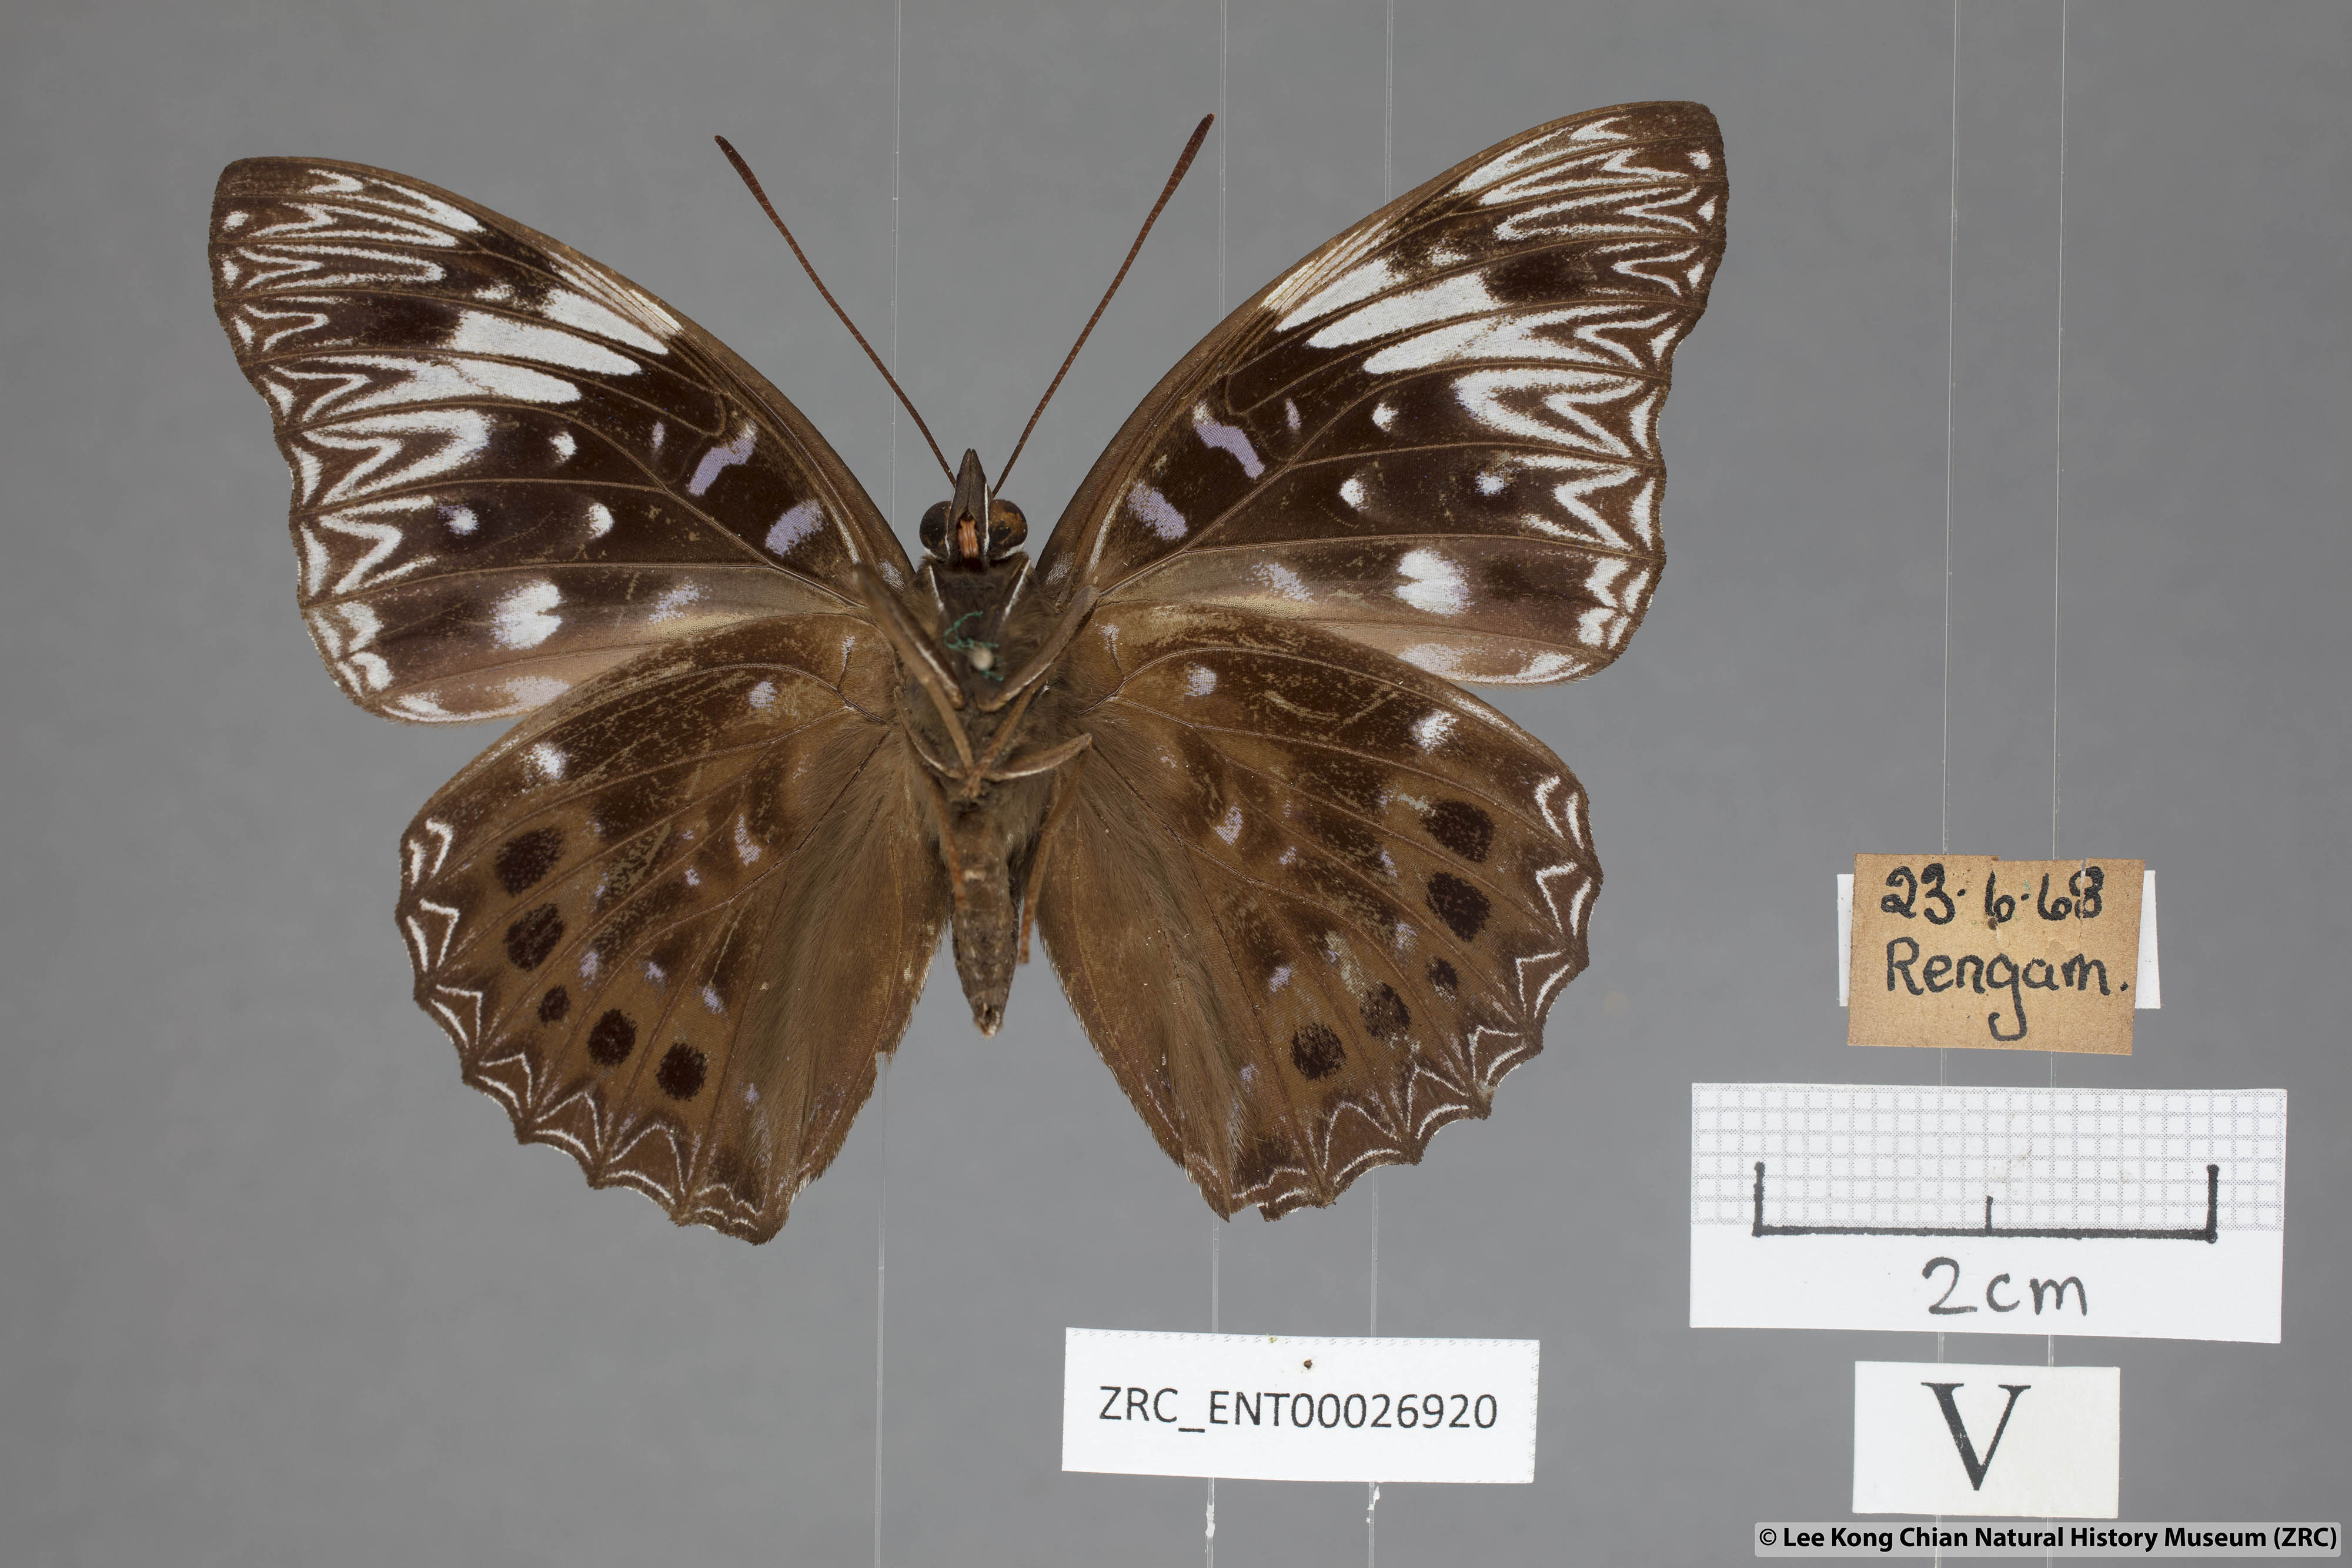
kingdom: Animalia
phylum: Arthropoda
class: Insecta
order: Lepidoptera
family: Nymphalidae
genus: Dichorragia
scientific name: Dichorragia nesimachus
